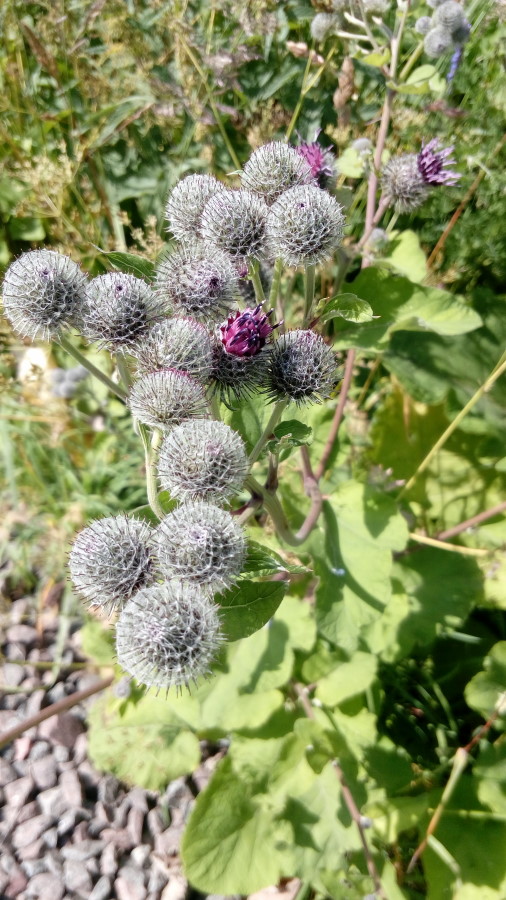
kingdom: Plantae
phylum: Tracheophyta
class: Magnoliopsida
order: Asterales
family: Asteraceae
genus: Arctium
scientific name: Arctium tomentosum
